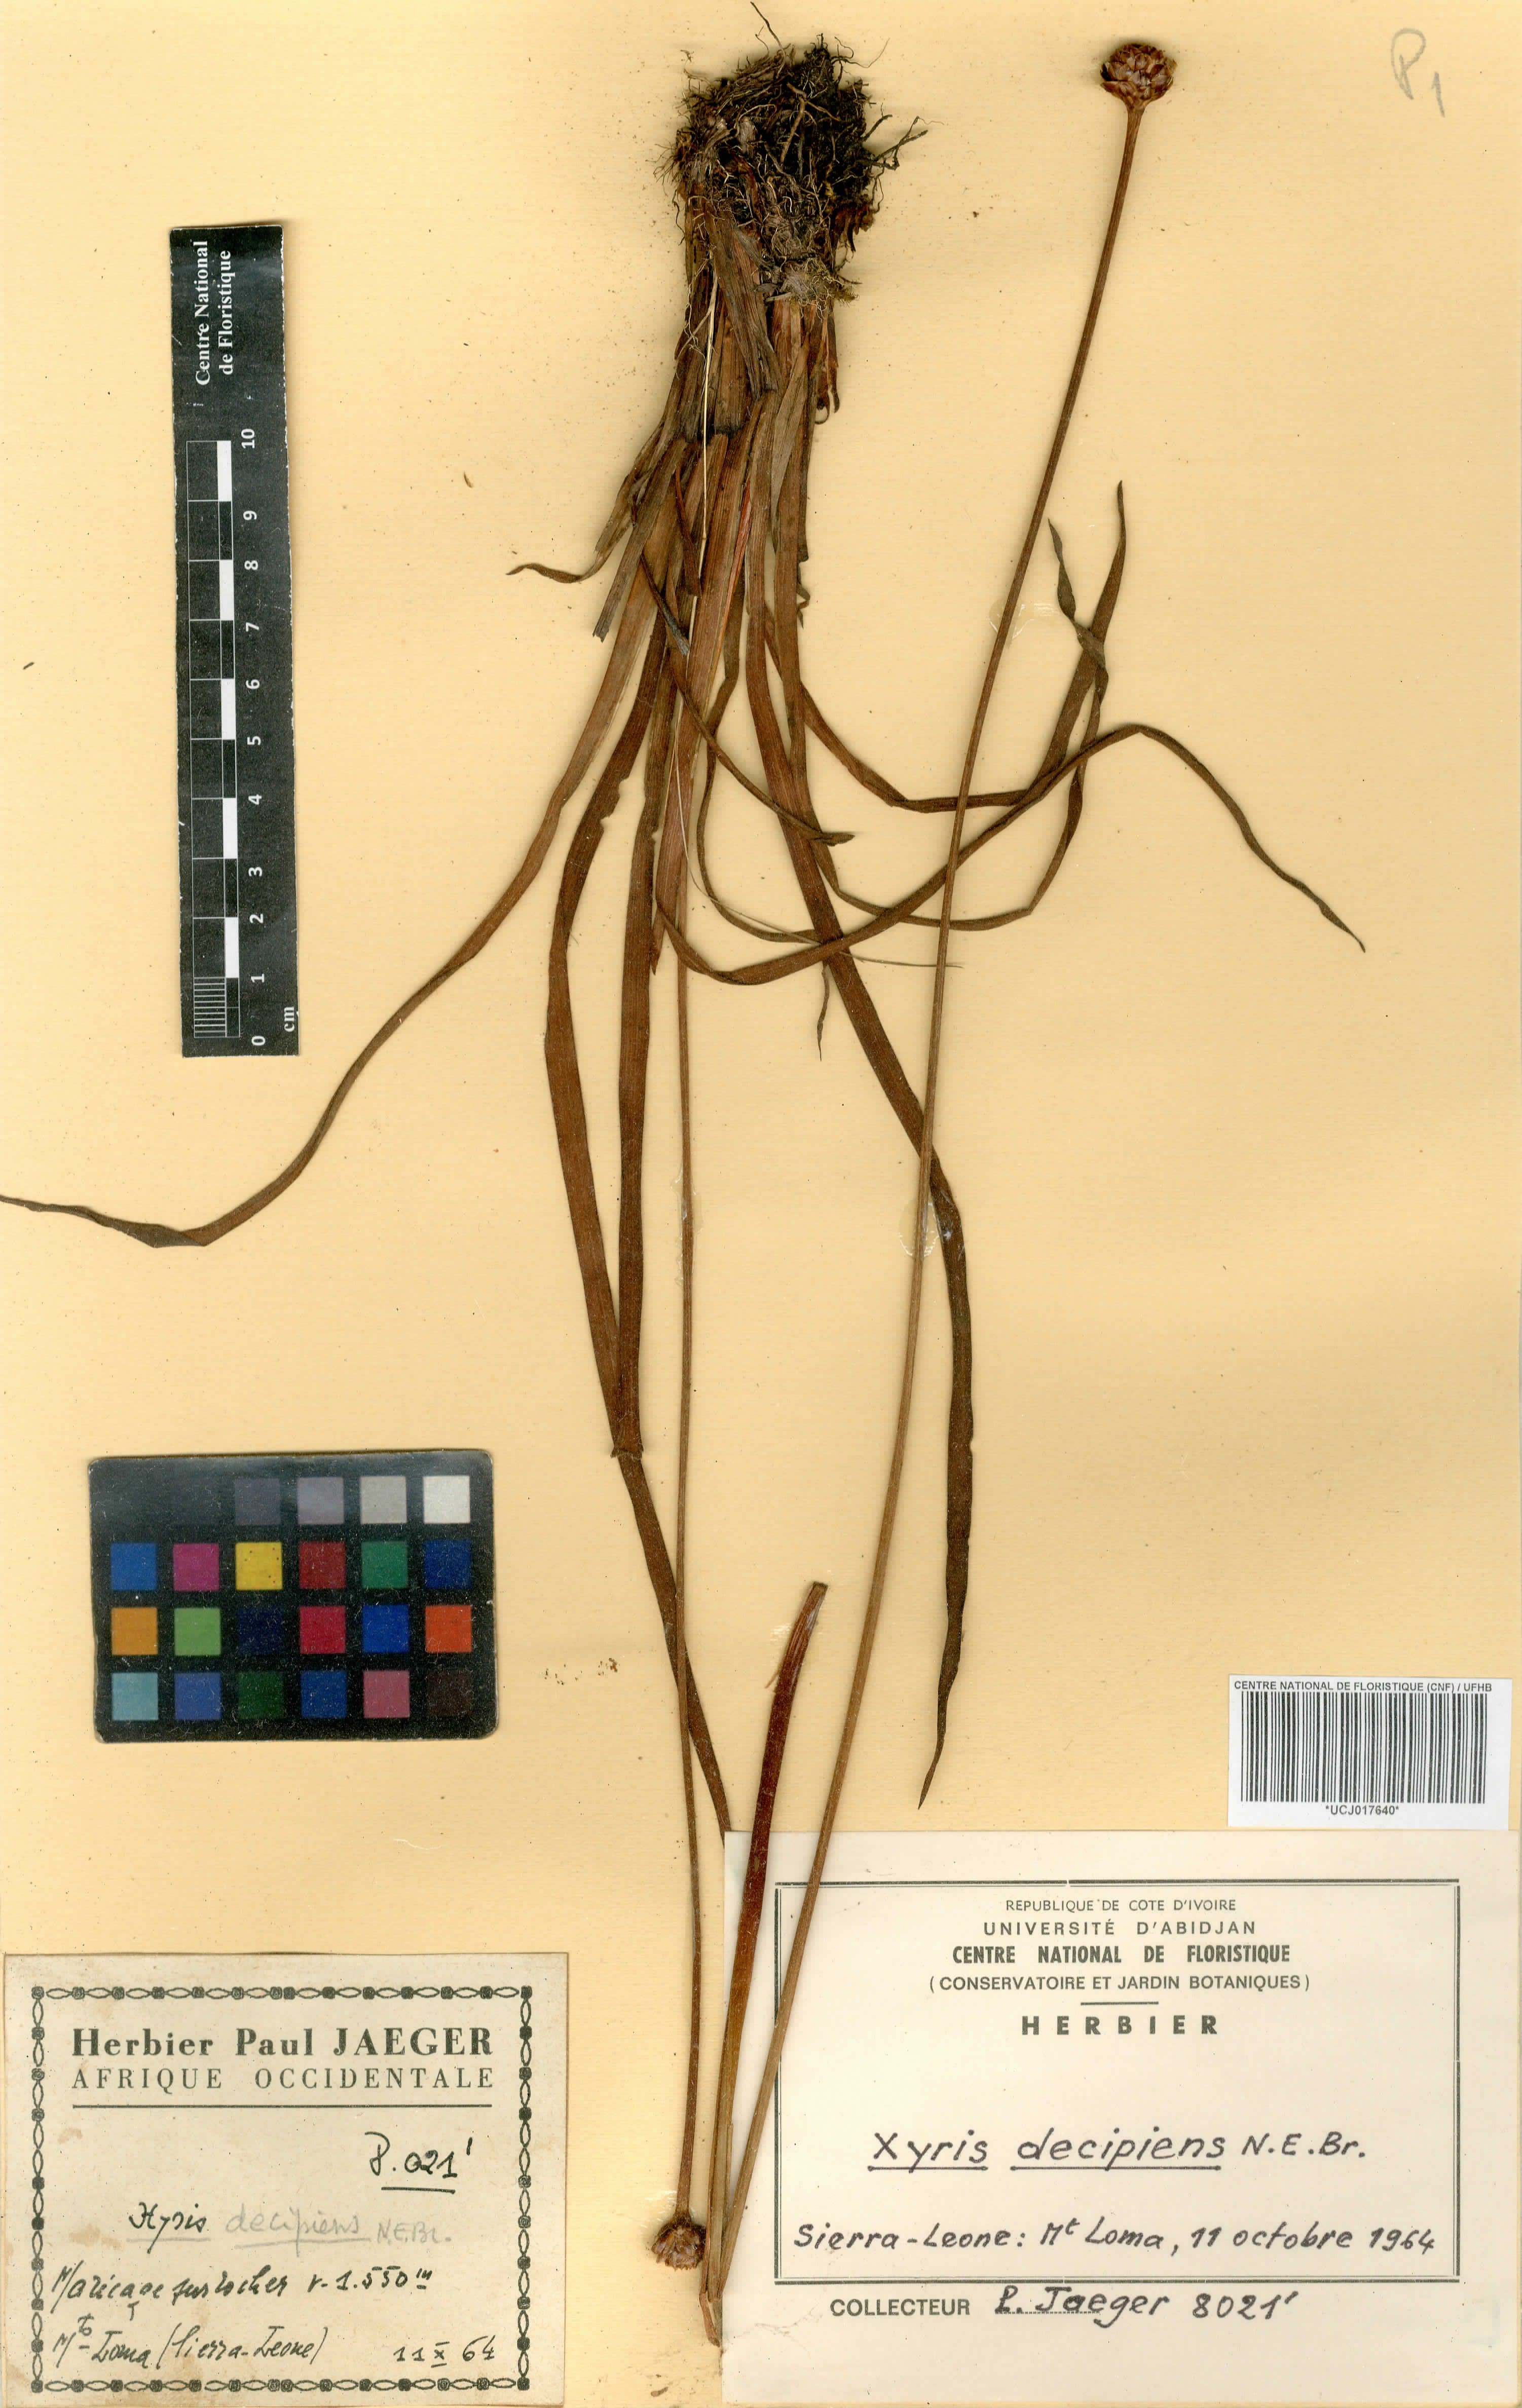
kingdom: Plantae
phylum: Tracheophyta
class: Liliopsida
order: Poales
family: Xyridaceae
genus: Xyris
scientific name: Xyris decipiens
